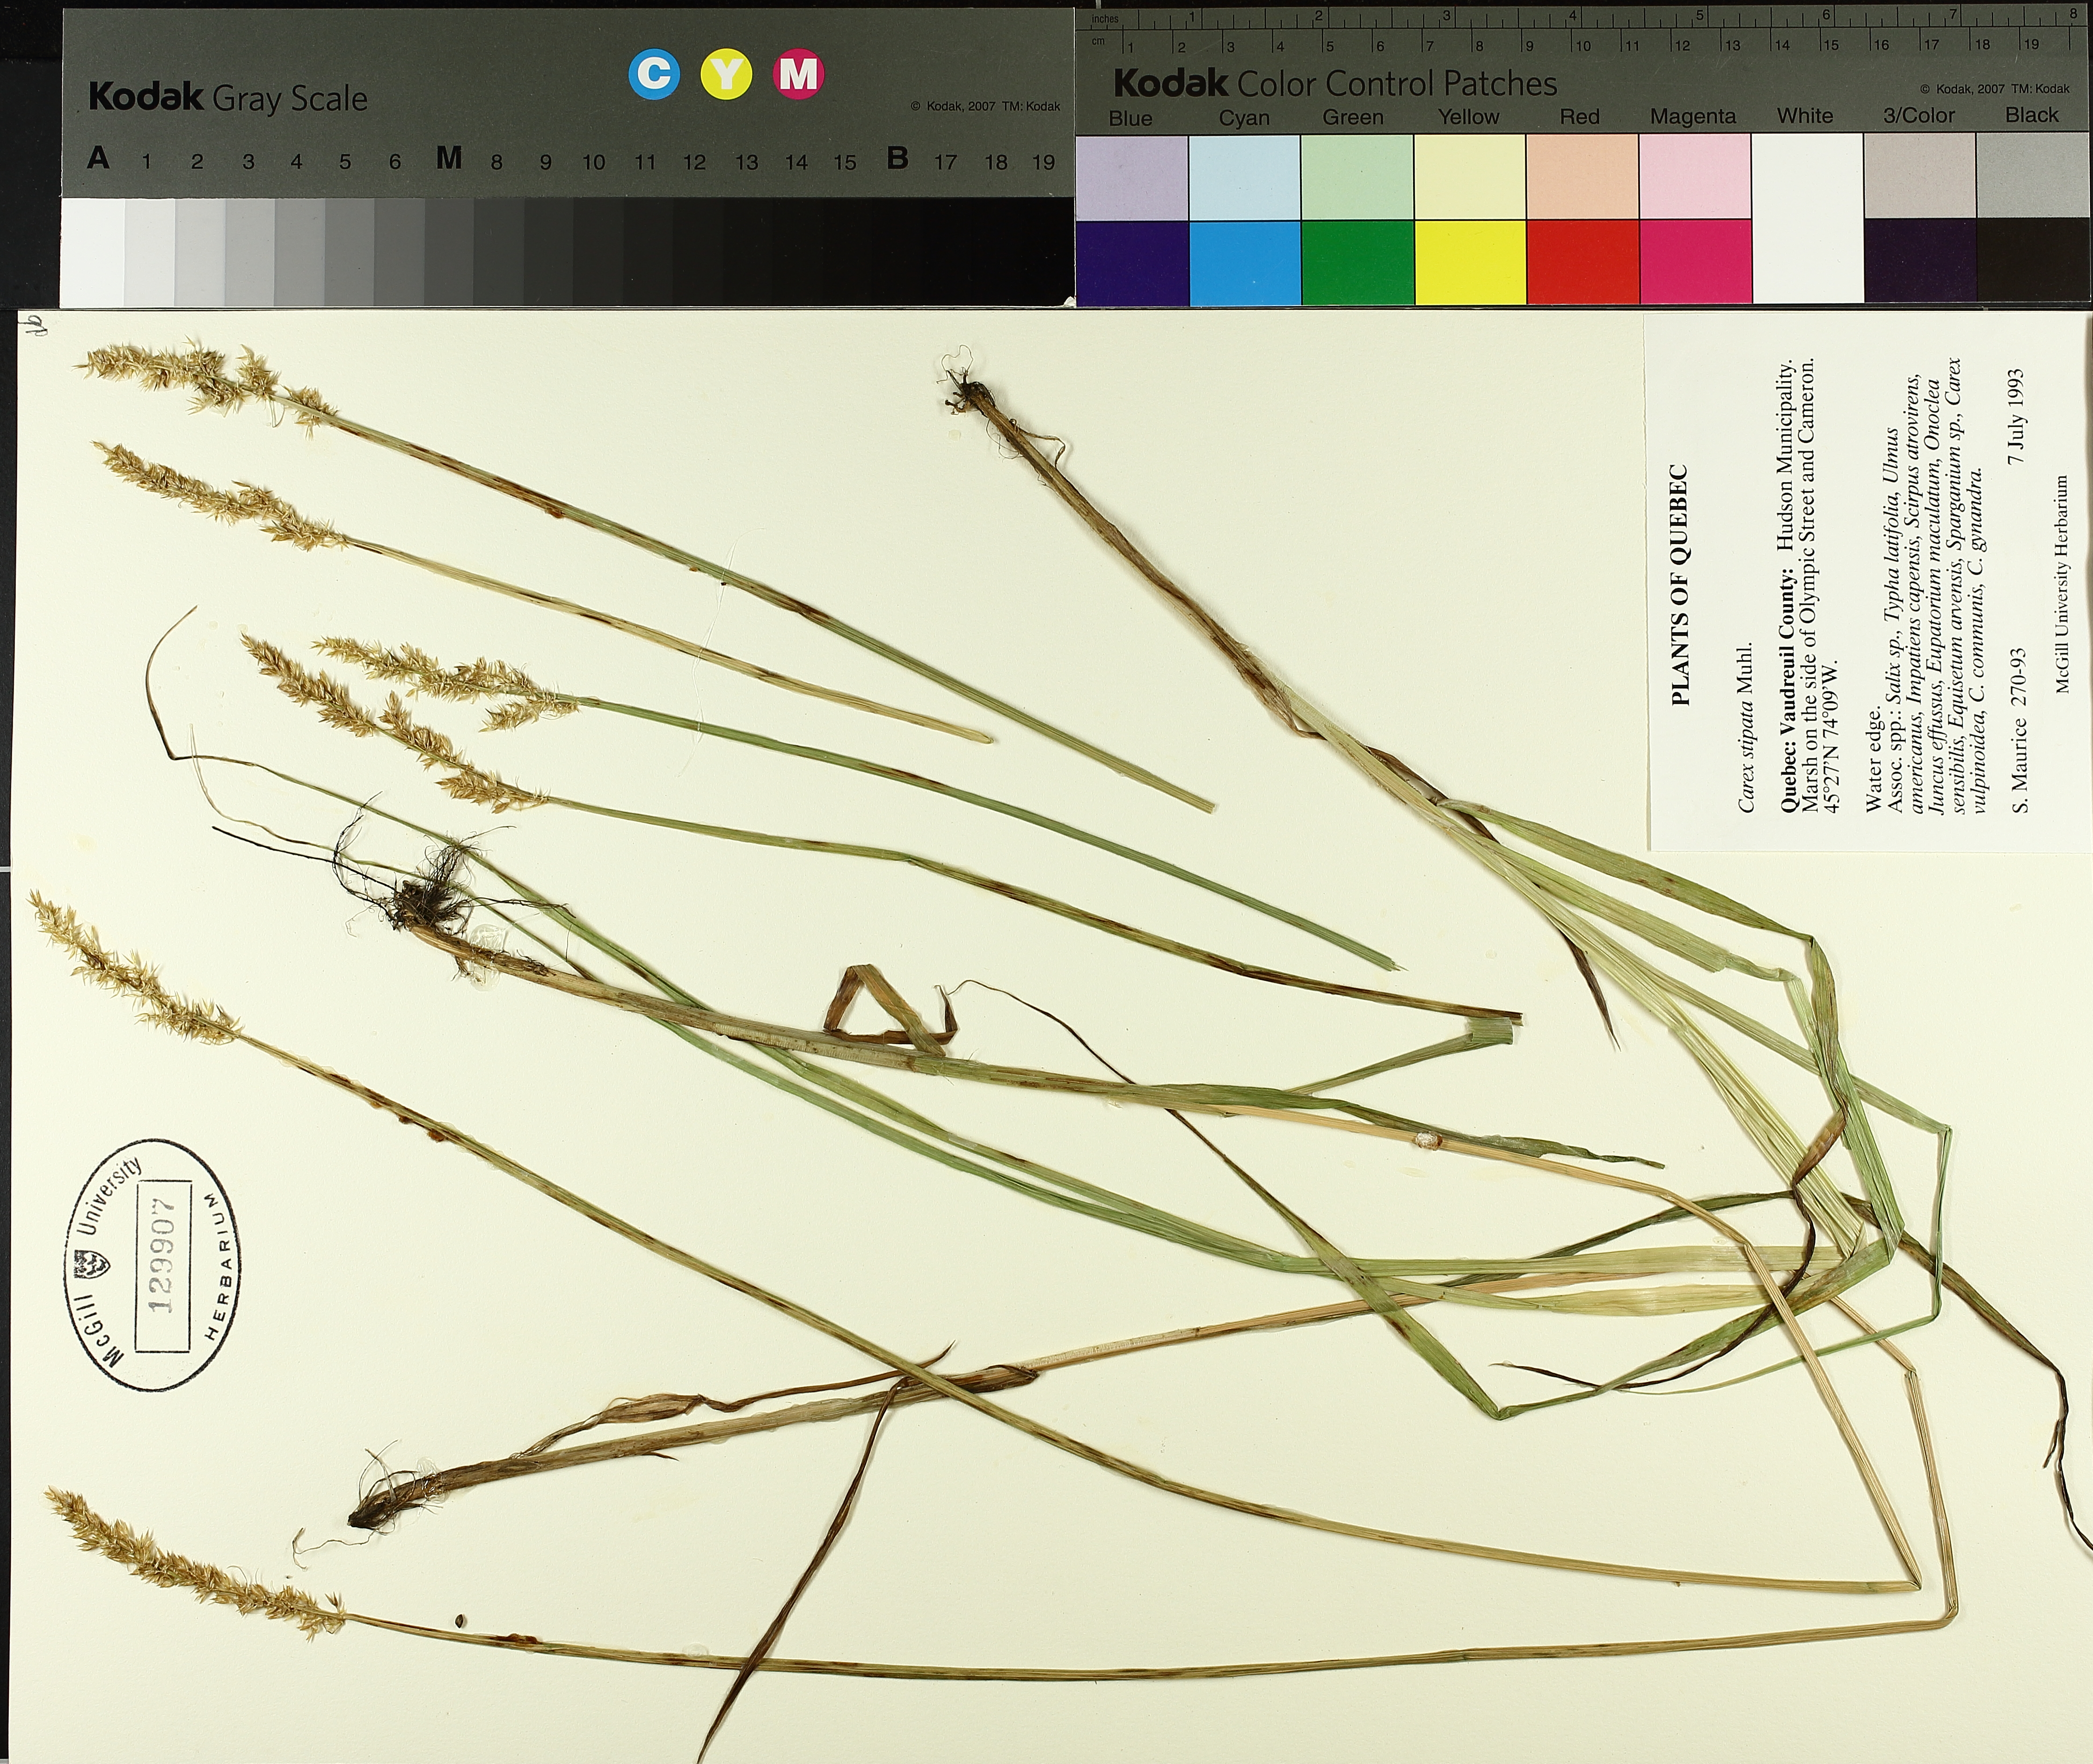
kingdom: Plantae
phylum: Tracheophyta
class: Liliopsida
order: Poales
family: Cyperaceae
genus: Carex
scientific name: Carex stipata
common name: Awl-fruited sedge
